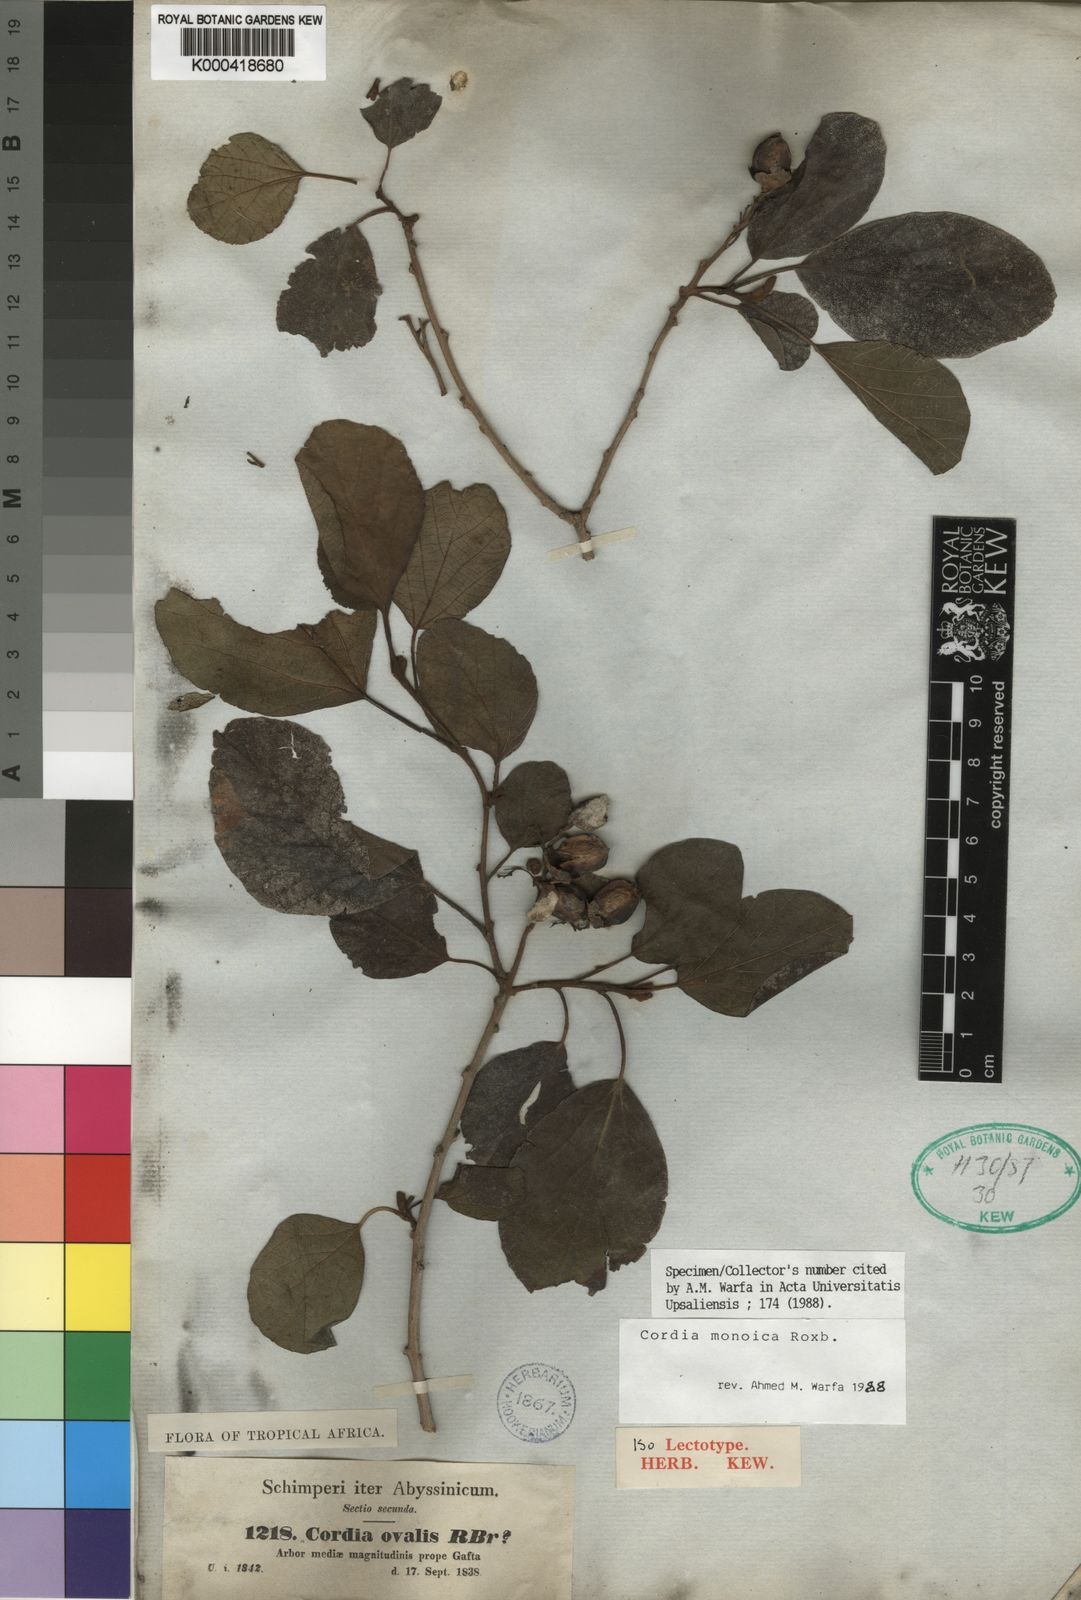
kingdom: Plantae
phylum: Tracheophyta
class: Magnoliopsida
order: Boraginales
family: Cordiaceae
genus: Cordia
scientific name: Cordia monoica
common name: Snot berry
